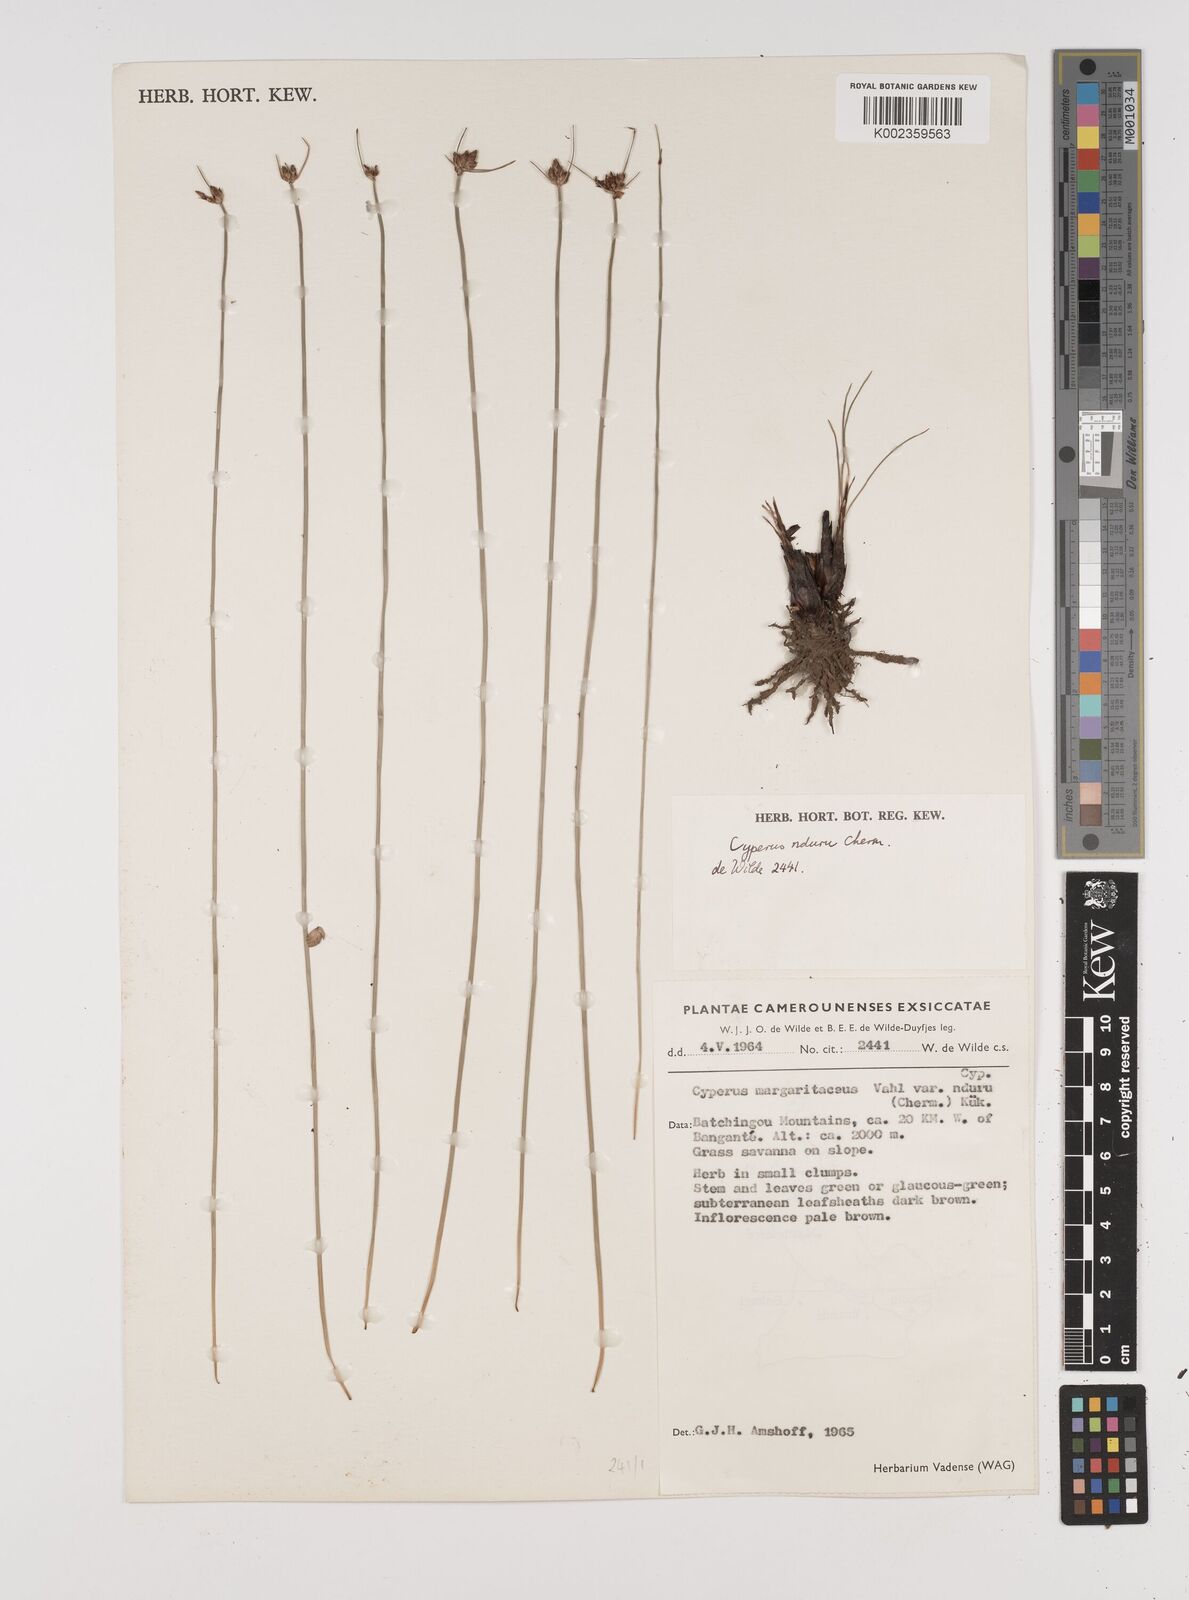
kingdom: Plantae
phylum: Tracheophyta
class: Liliopsida
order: Poales
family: Cyperaceae
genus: Cyperus
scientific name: Cyperus nduru
